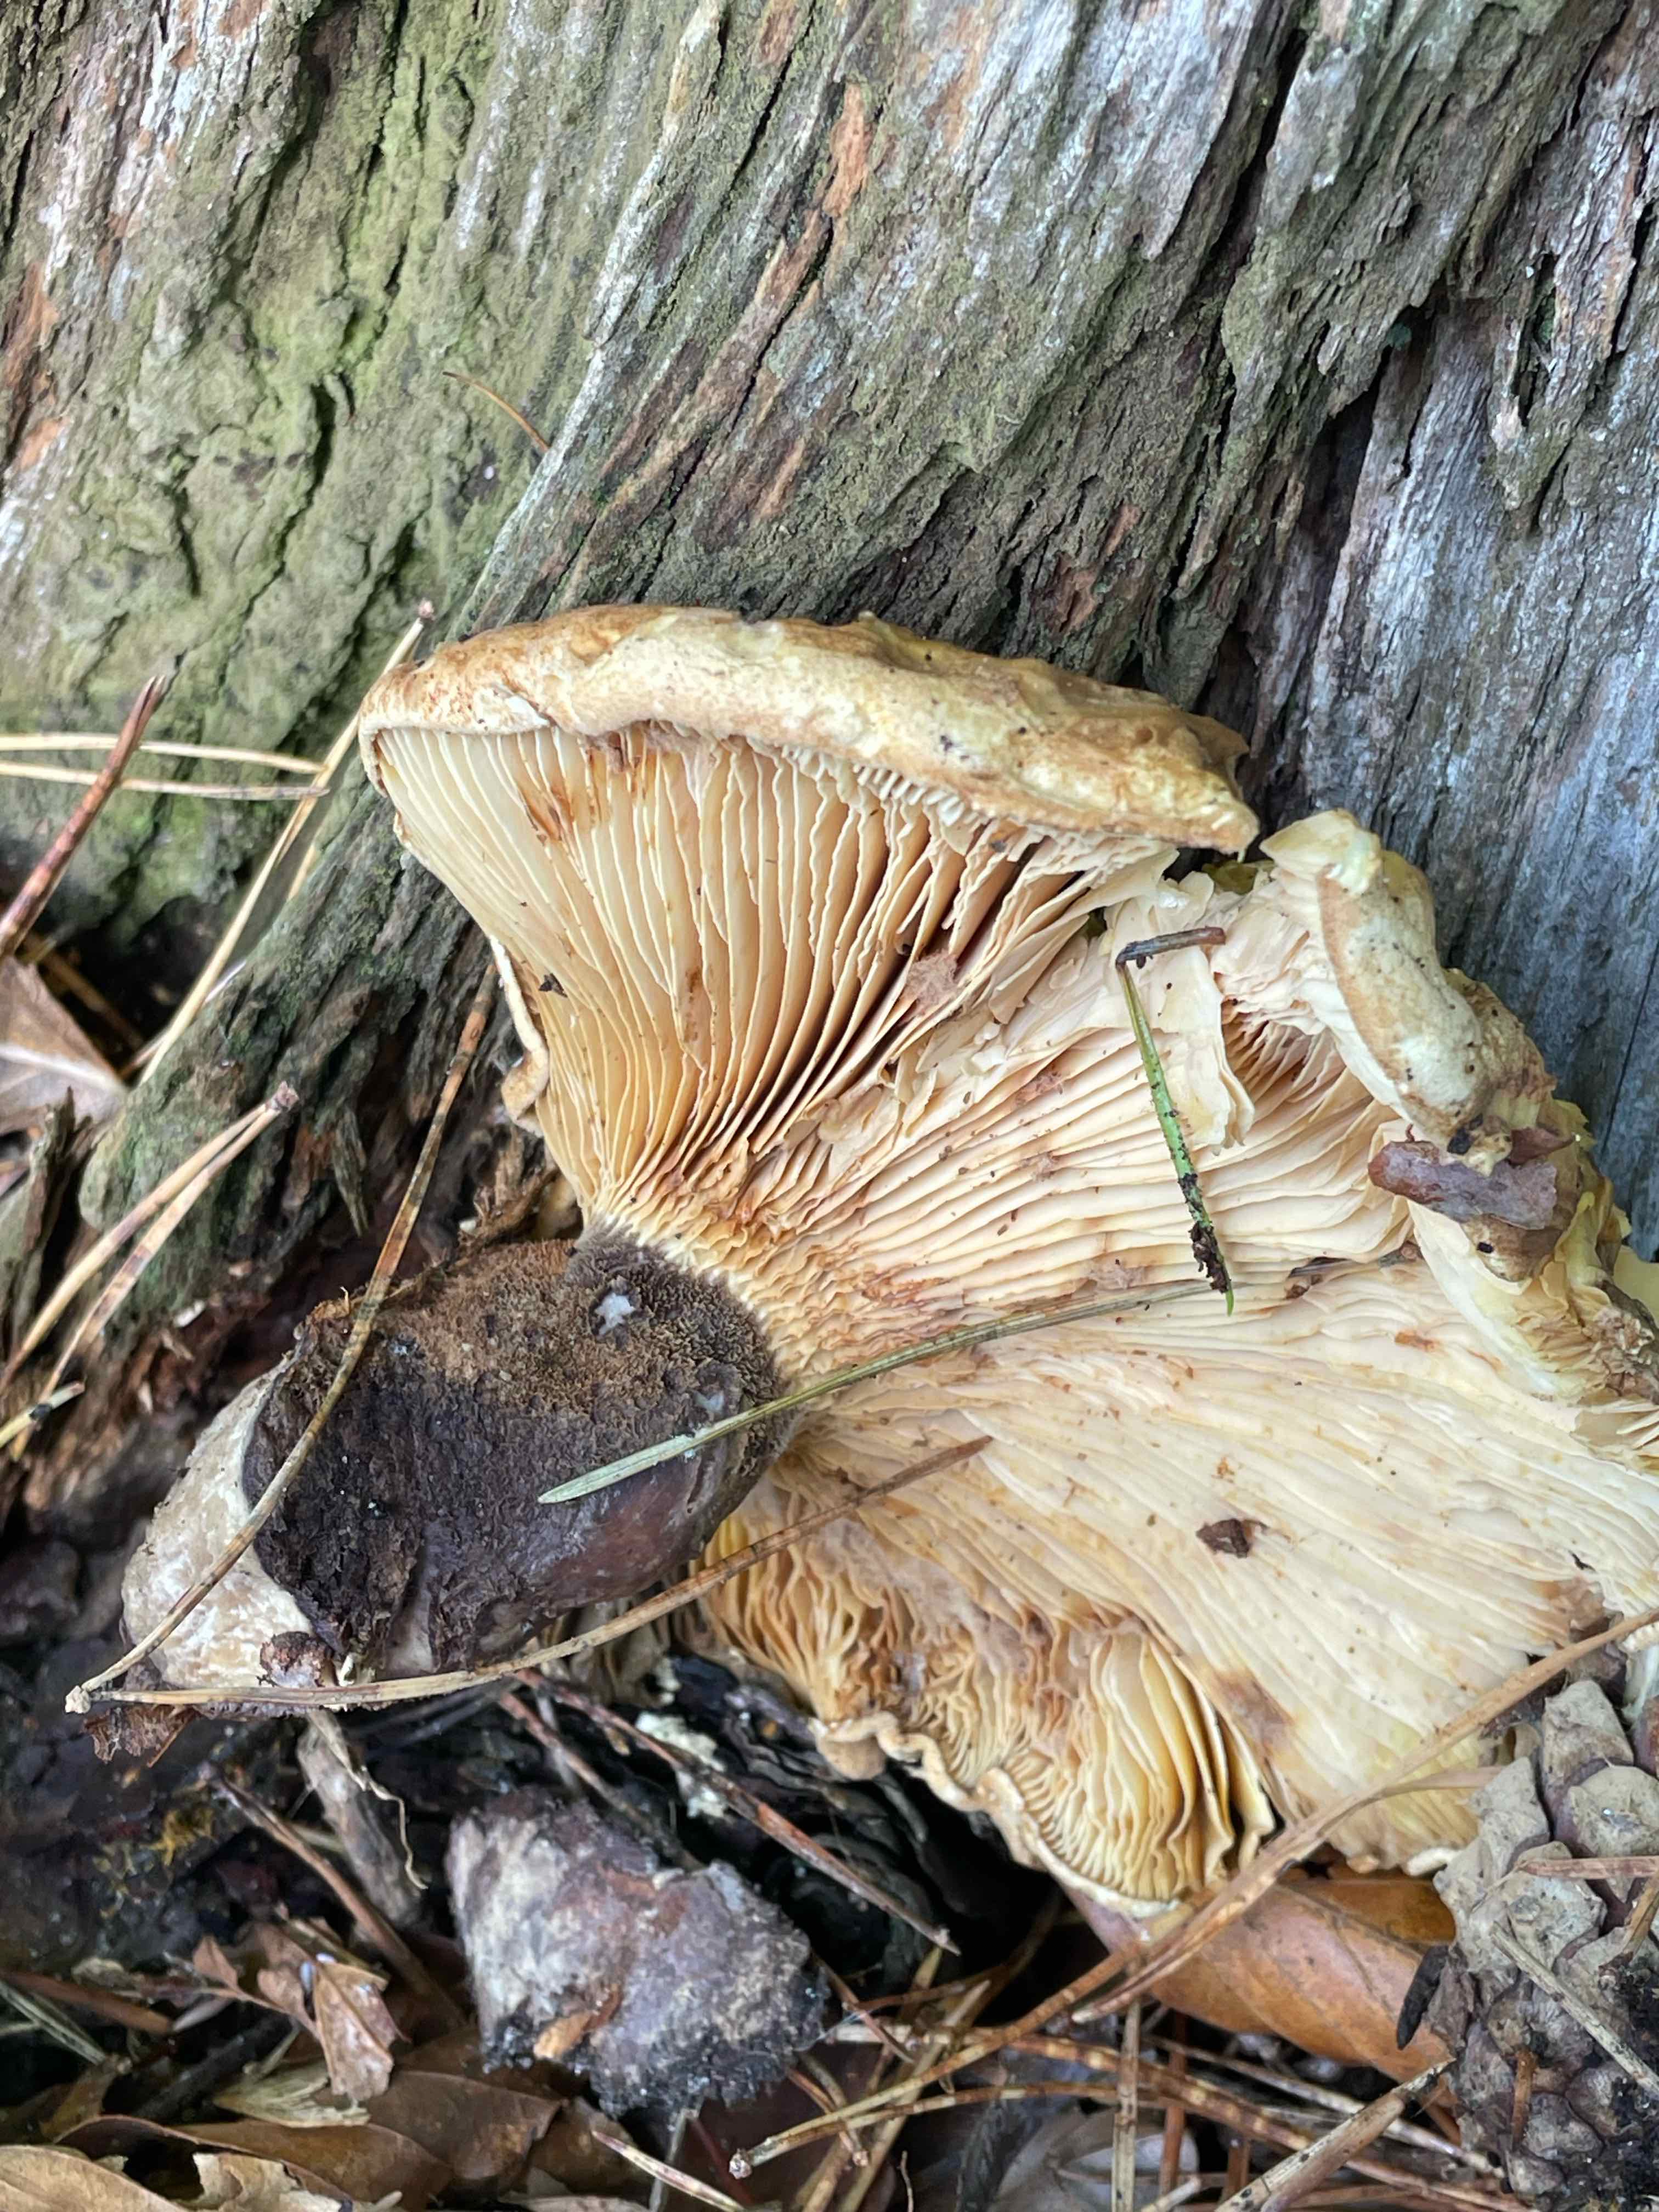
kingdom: Fungi
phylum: Basidiomycota
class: Agaricomycetes
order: Boletales
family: Tapinellaceae
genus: Tapinella
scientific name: Tapinella atrotomentosa
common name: sortfiltet viftesvamp
